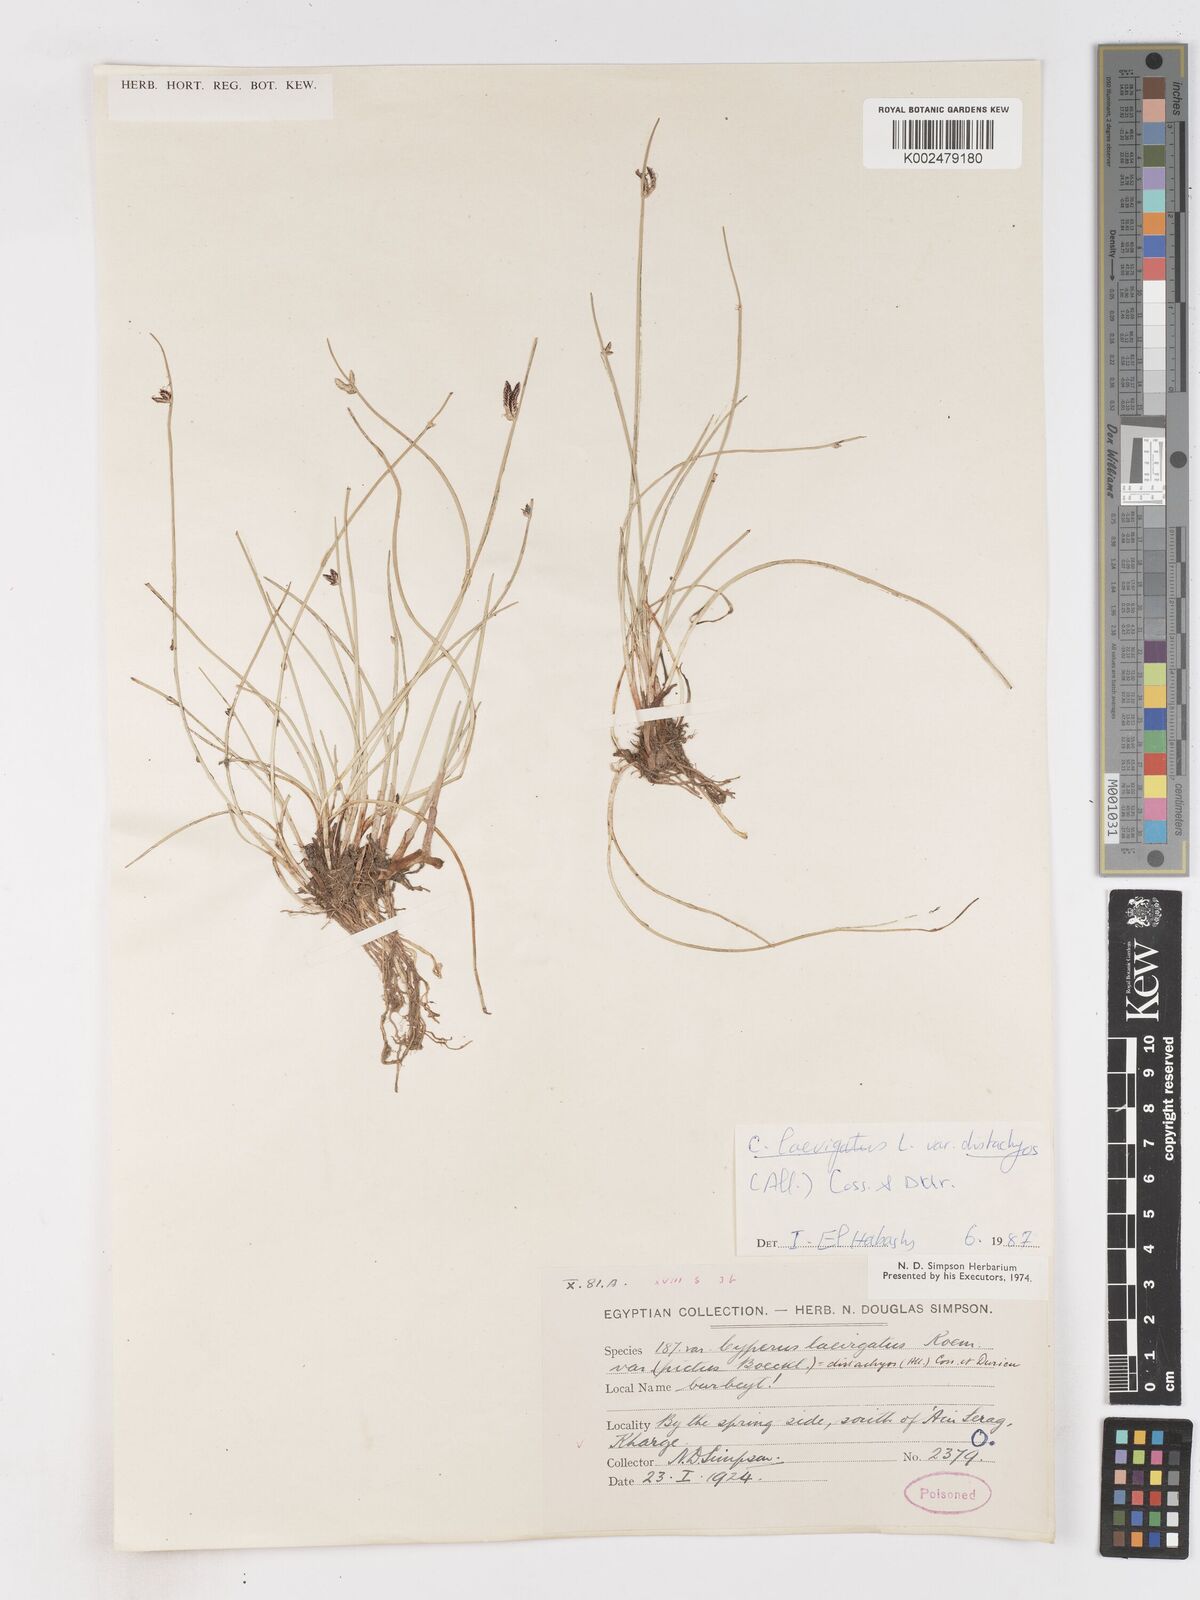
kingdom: Plantae
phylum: Tracheophyta
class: Liliopsida
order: Poales
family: Cyperaceae
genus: Cyperus
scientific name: Cyperus laevigatus
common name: Smooth flat sedge
